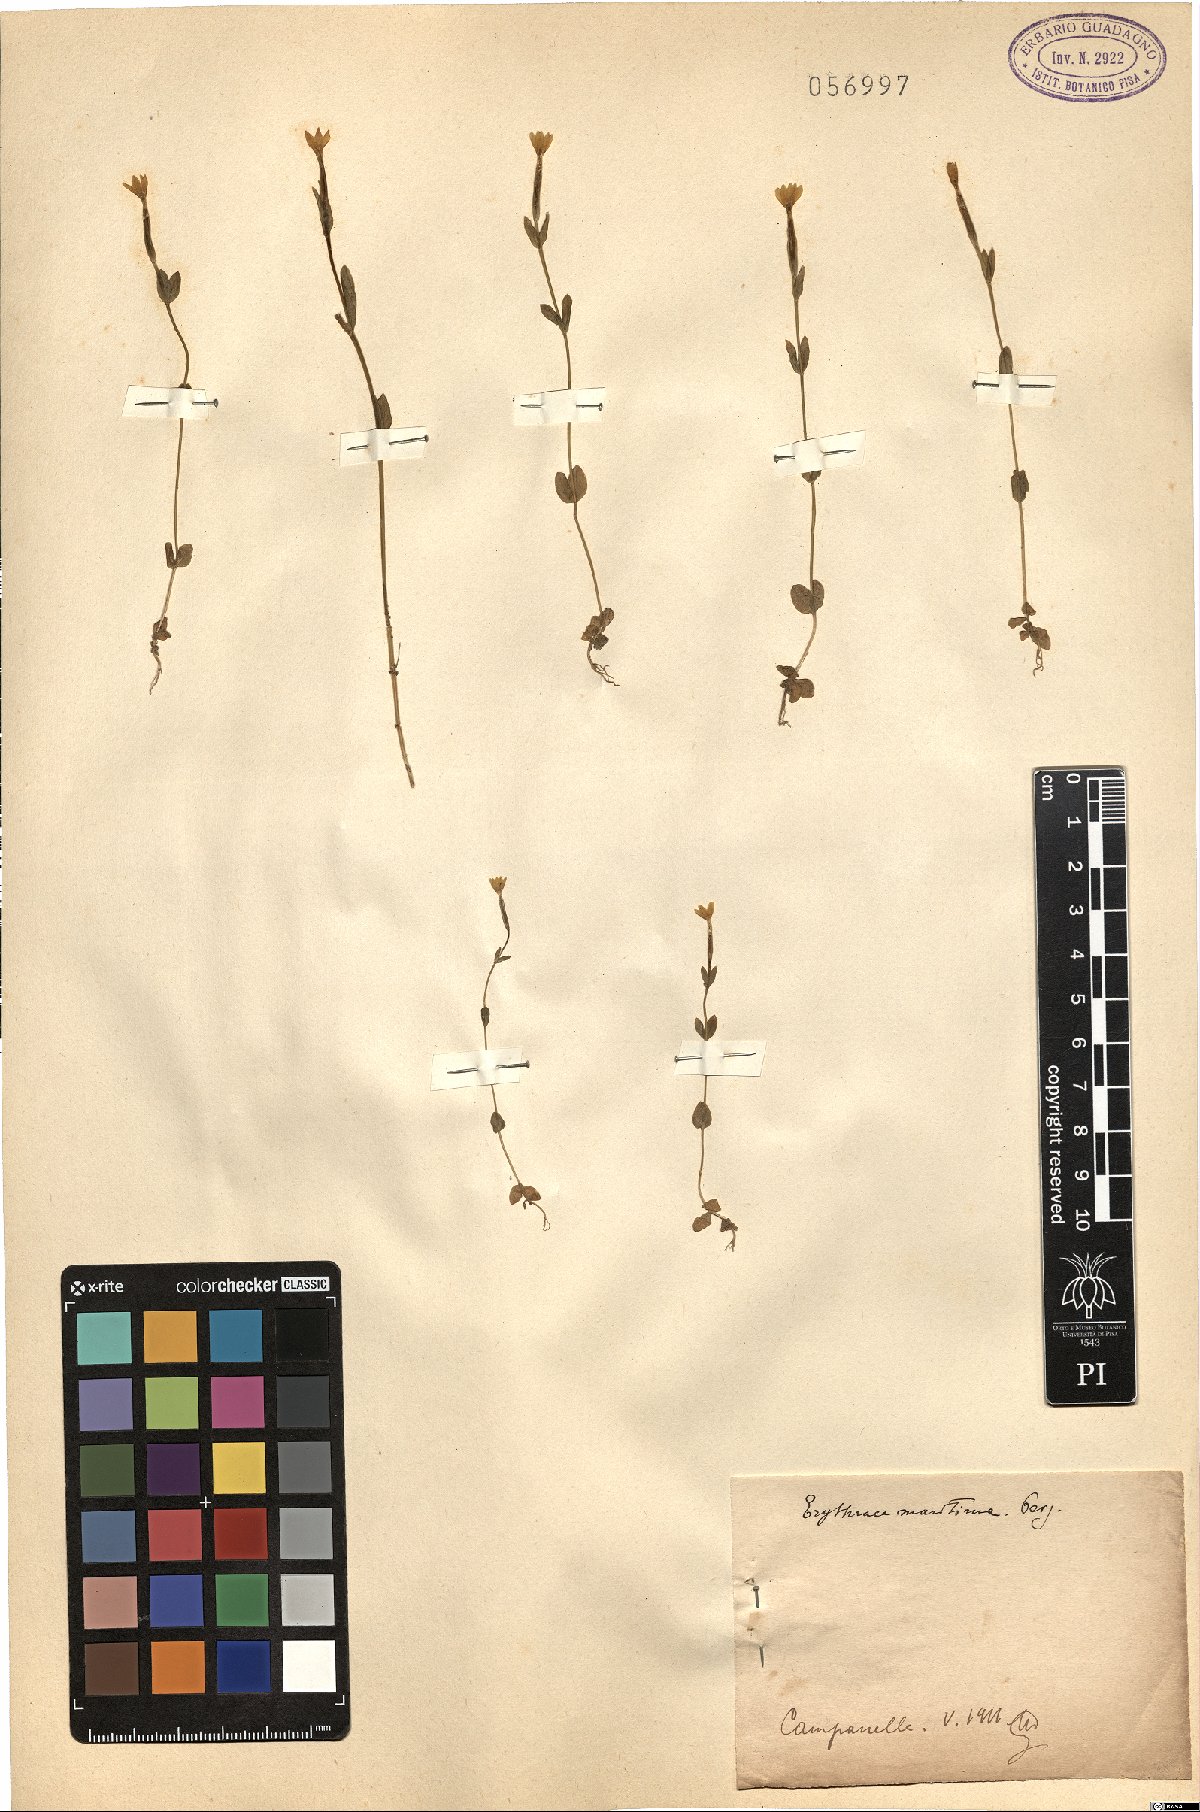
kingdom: Plantae
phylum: Tracheophyta
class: Magnoliopsida
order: Gentianales
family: Gentianaceae
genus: Centaurium
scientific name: Centaurium maritimum
